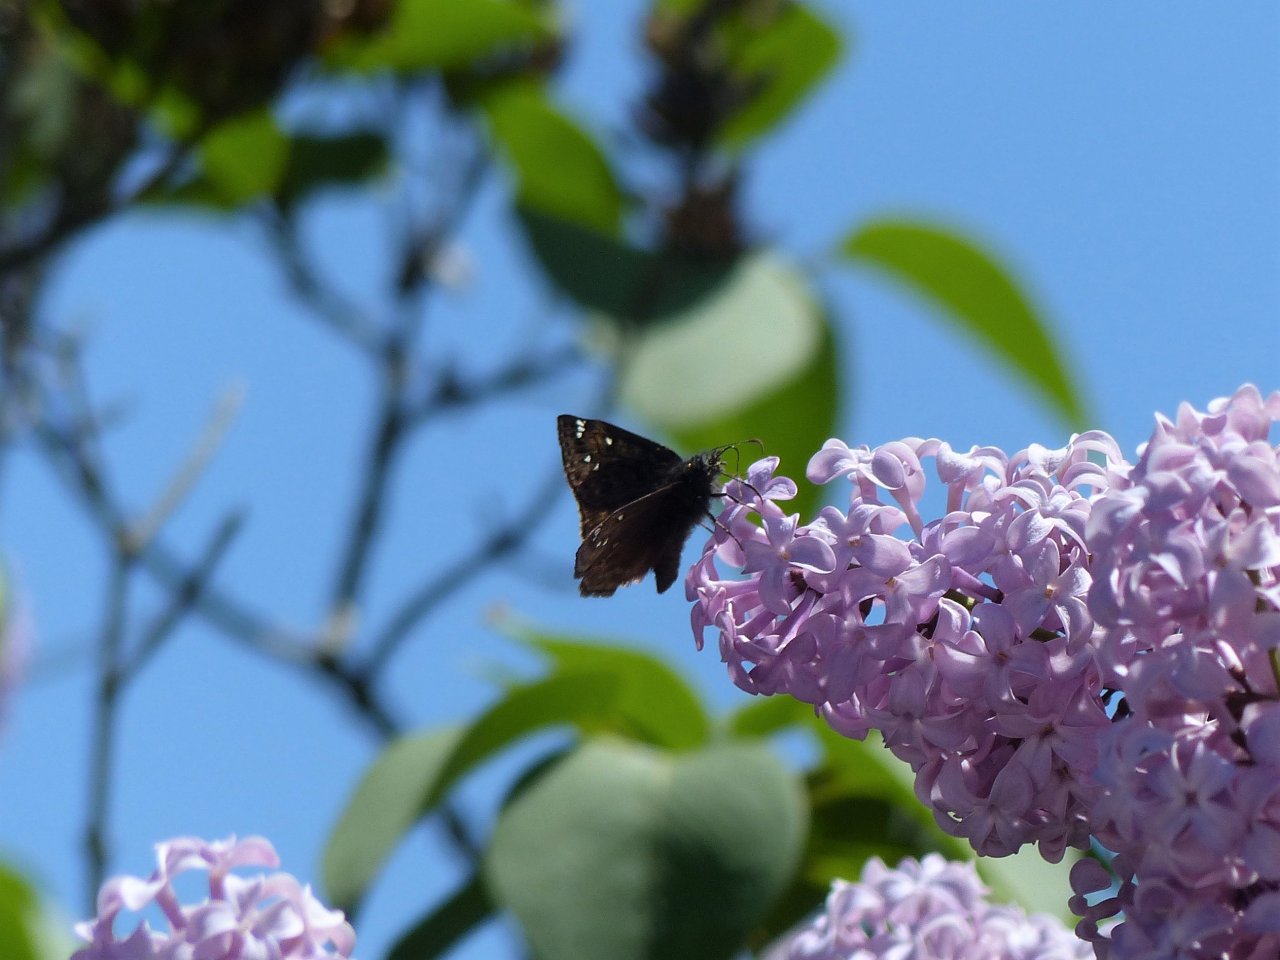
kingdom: Animalia
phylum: Arthropoda
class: Insecta
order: Lepidoptera
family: Hesperiidae
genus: Gesta
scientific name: Gesta
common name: Juvenal's Duskywing
